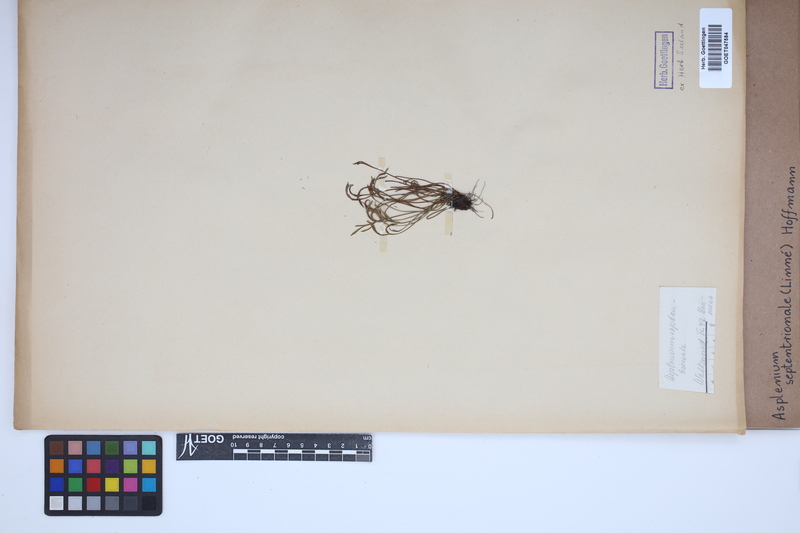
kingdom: Plantae
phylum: Tracheophyta
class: Polypodiopsida
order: Polypodiales
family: Aspleniaceae
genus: Asplenium
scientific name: Asplenium septentrionale
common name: Forked spleenwort
